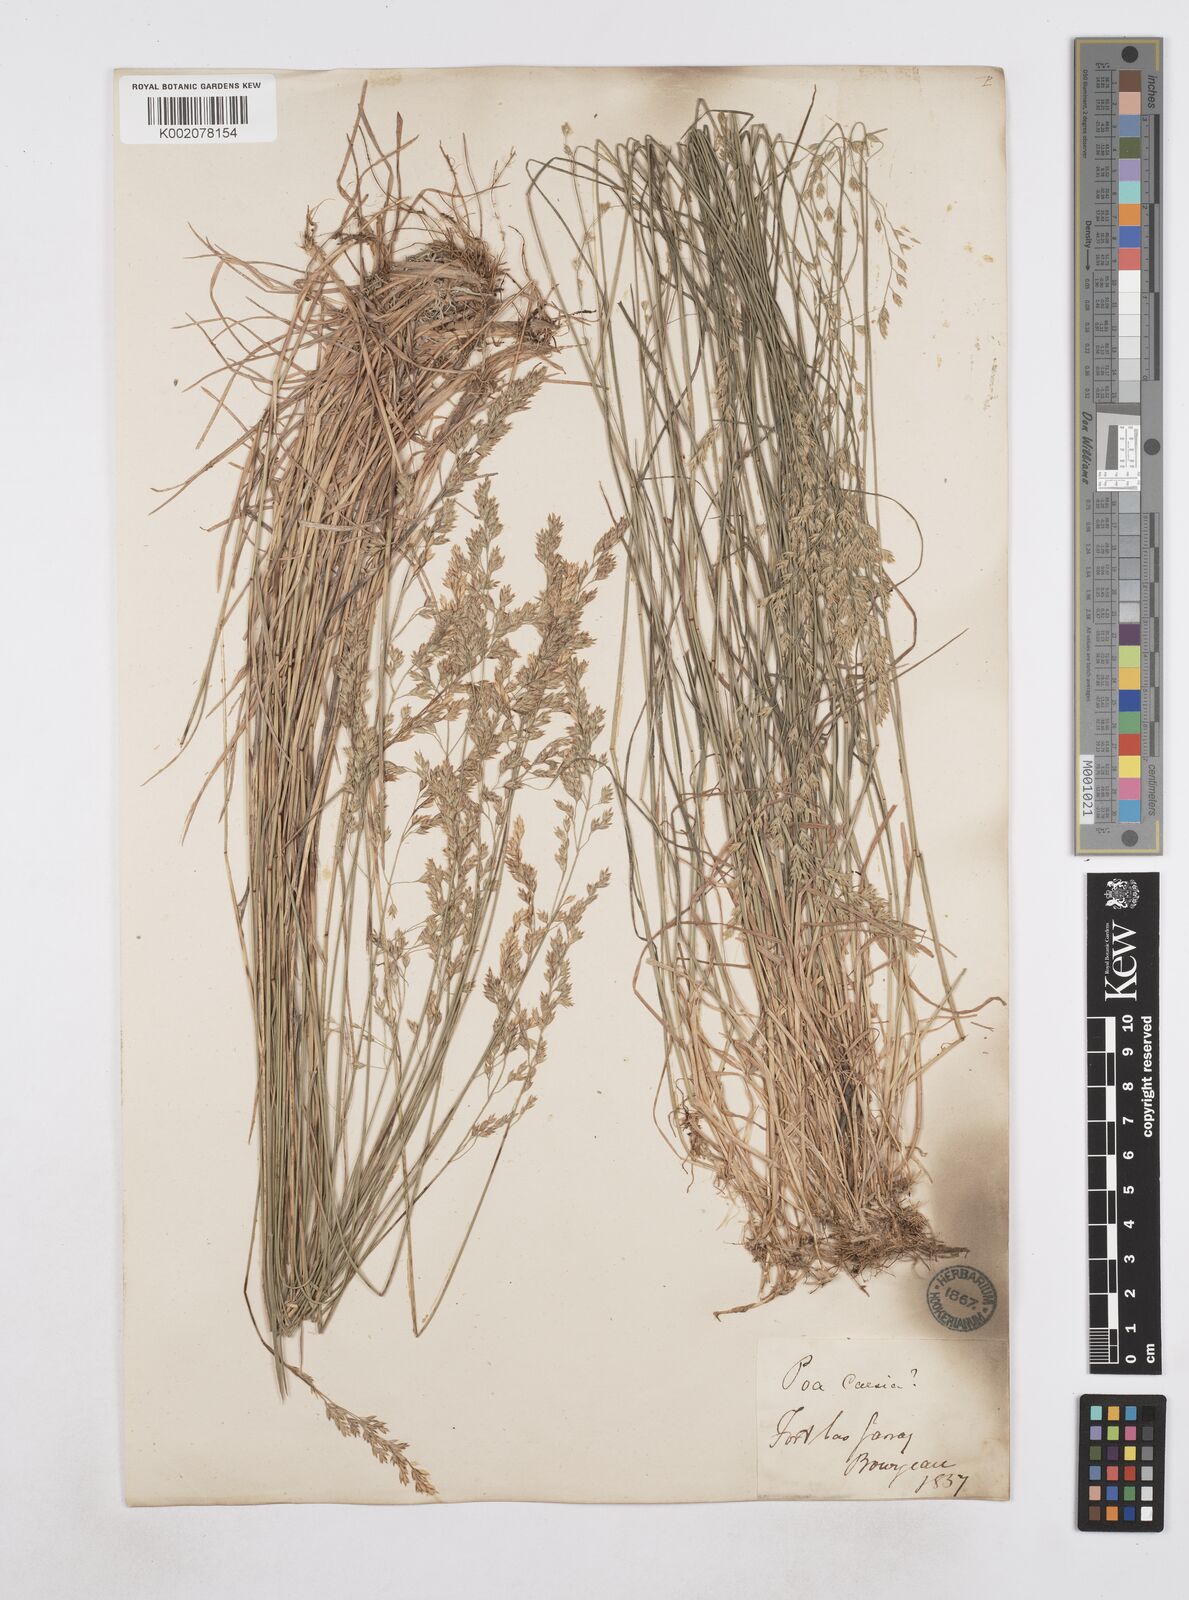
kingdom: Plantae
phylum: Tracheophyta
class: Liliopsida
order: Poales
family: Poaceae
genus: Poa
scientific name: Poa
